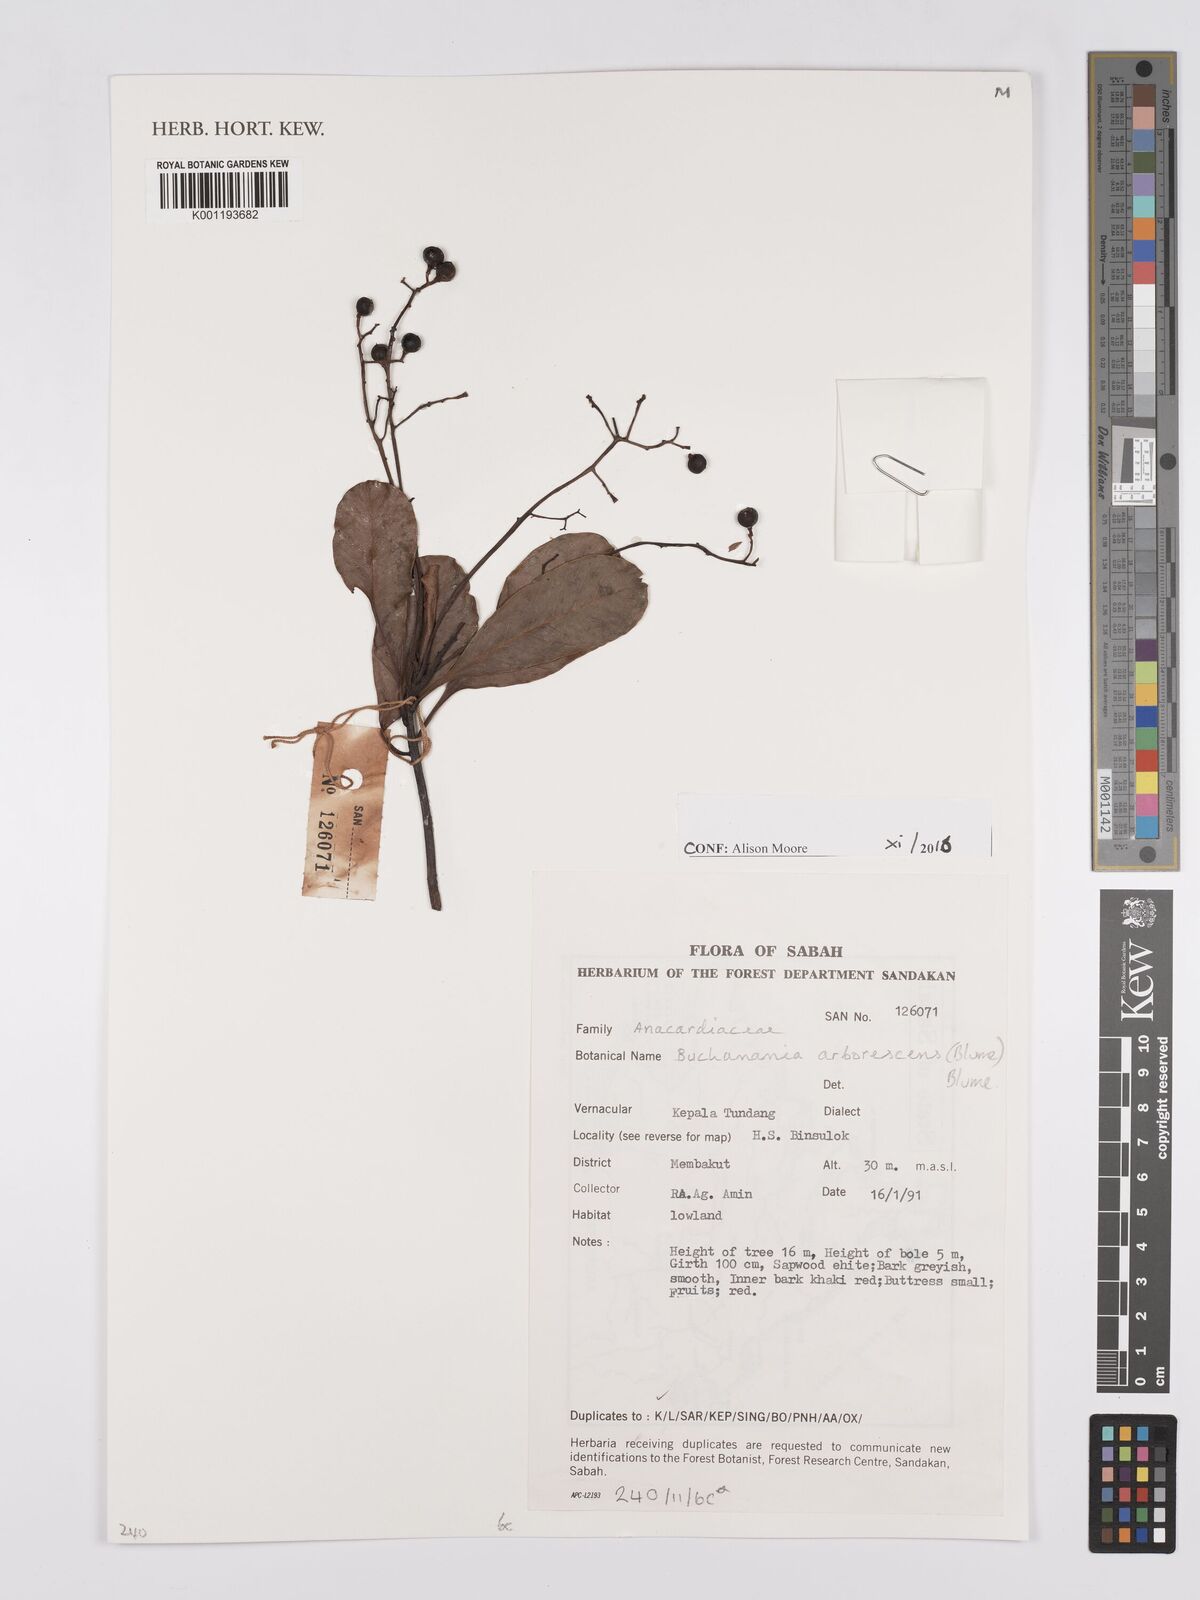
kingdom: Plantae
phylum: Tracheophyta
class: Magnoliopsida
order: Sapindales
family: Anacardiaceae
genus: Buchanania
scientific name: Buchanania arborescens
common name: Sparrow’s mango
